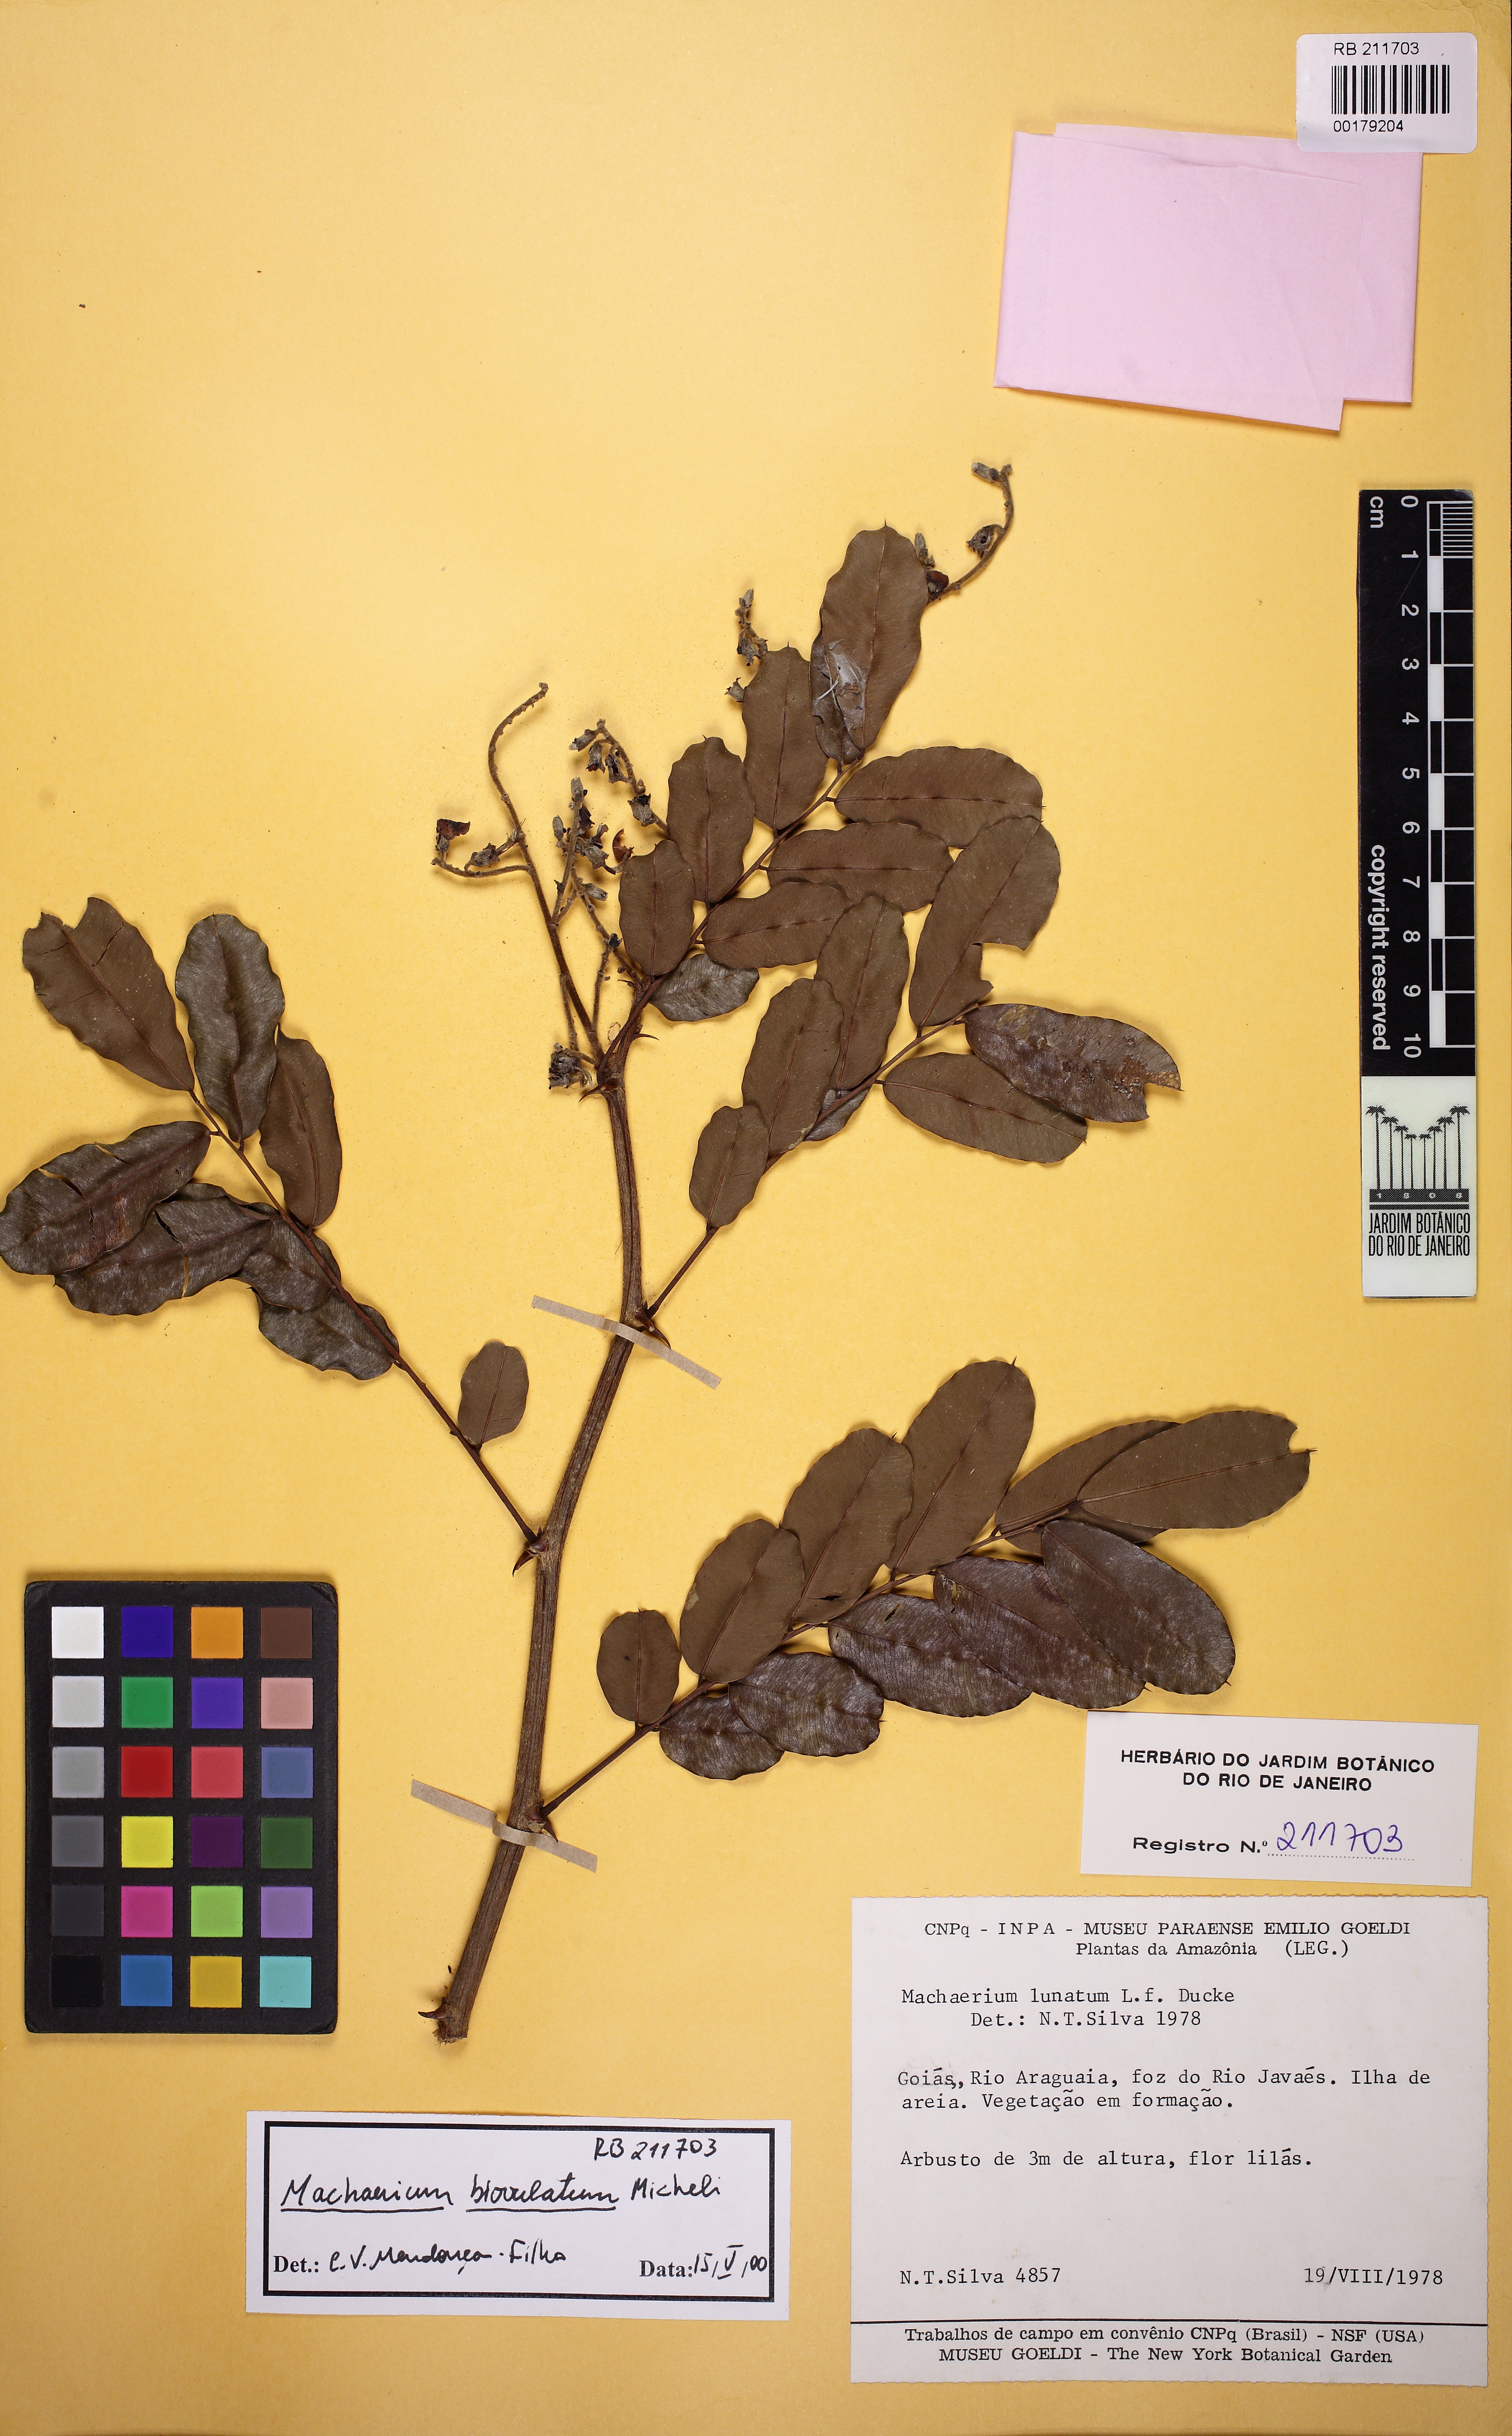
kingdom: Plantae
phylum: Tracheophyta
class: Magnoliopsida
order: Fabales
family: Fabaceae
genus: Machaerium
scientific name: Machaerium biovulatum
